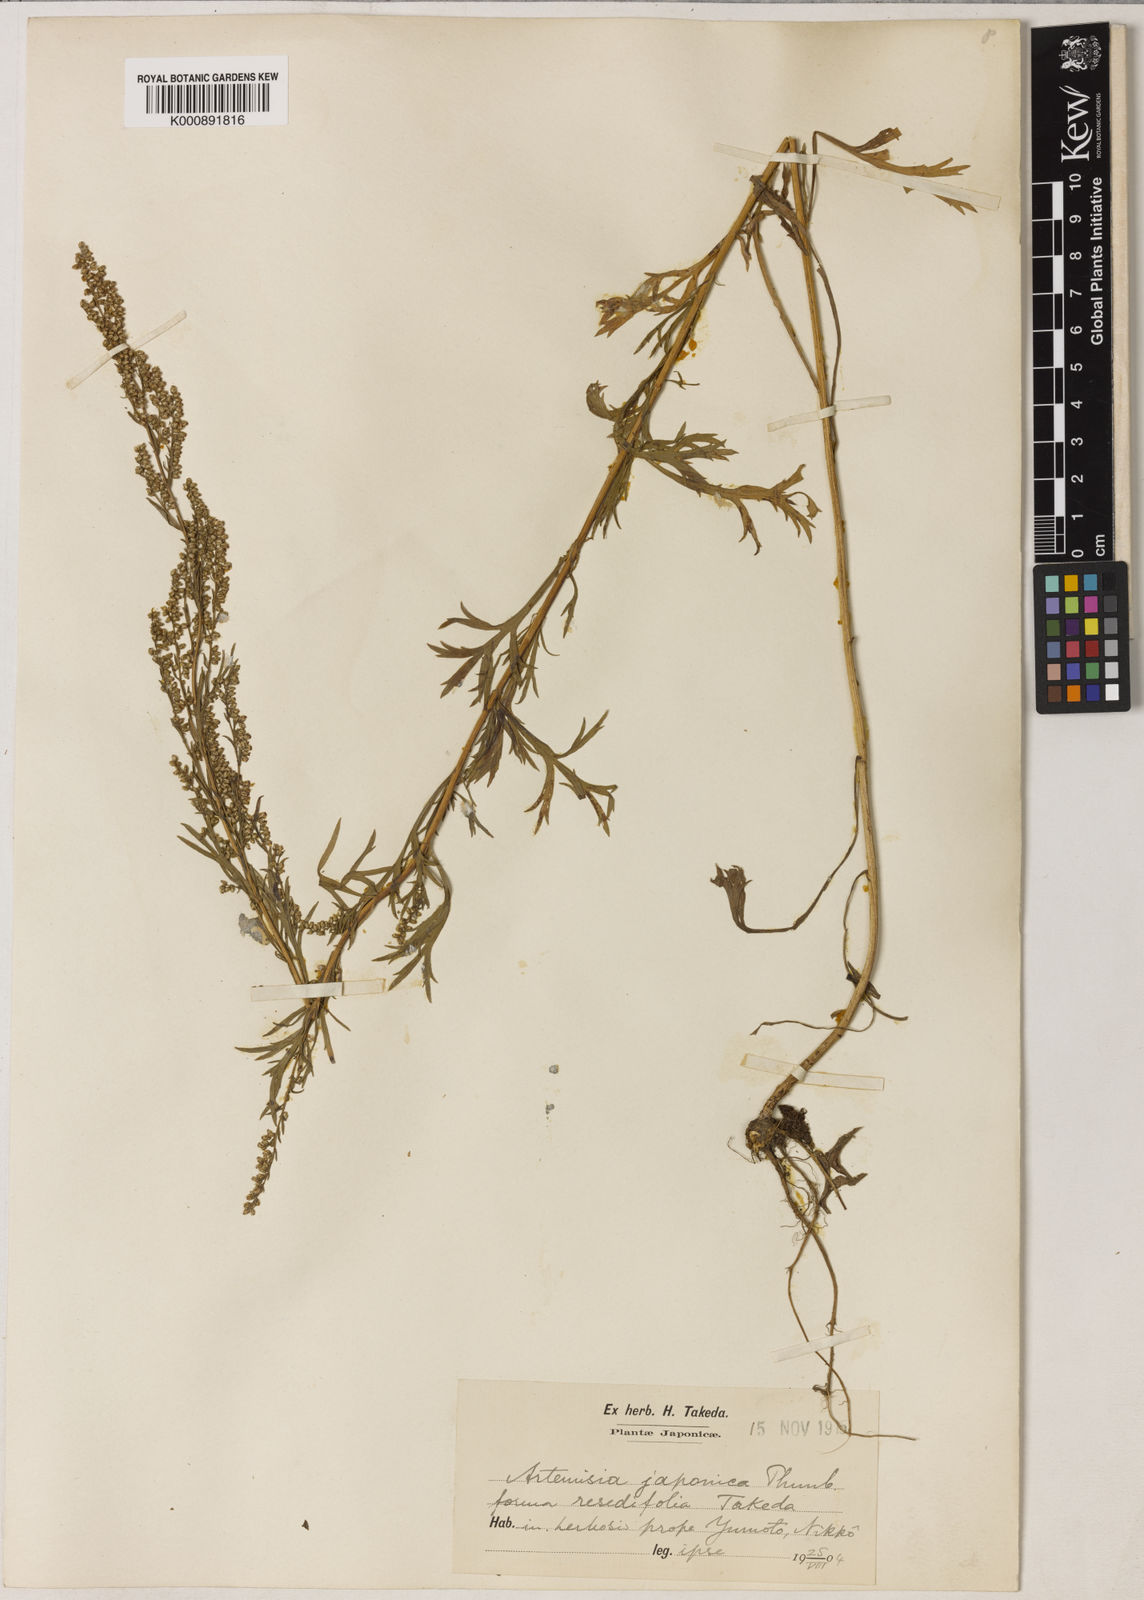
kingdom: Plantae
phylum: Tracheophyta
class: Magnoliopsida
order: Asterales
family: Asteraceae
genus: Artemisia
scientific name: Artemisia littoricola
